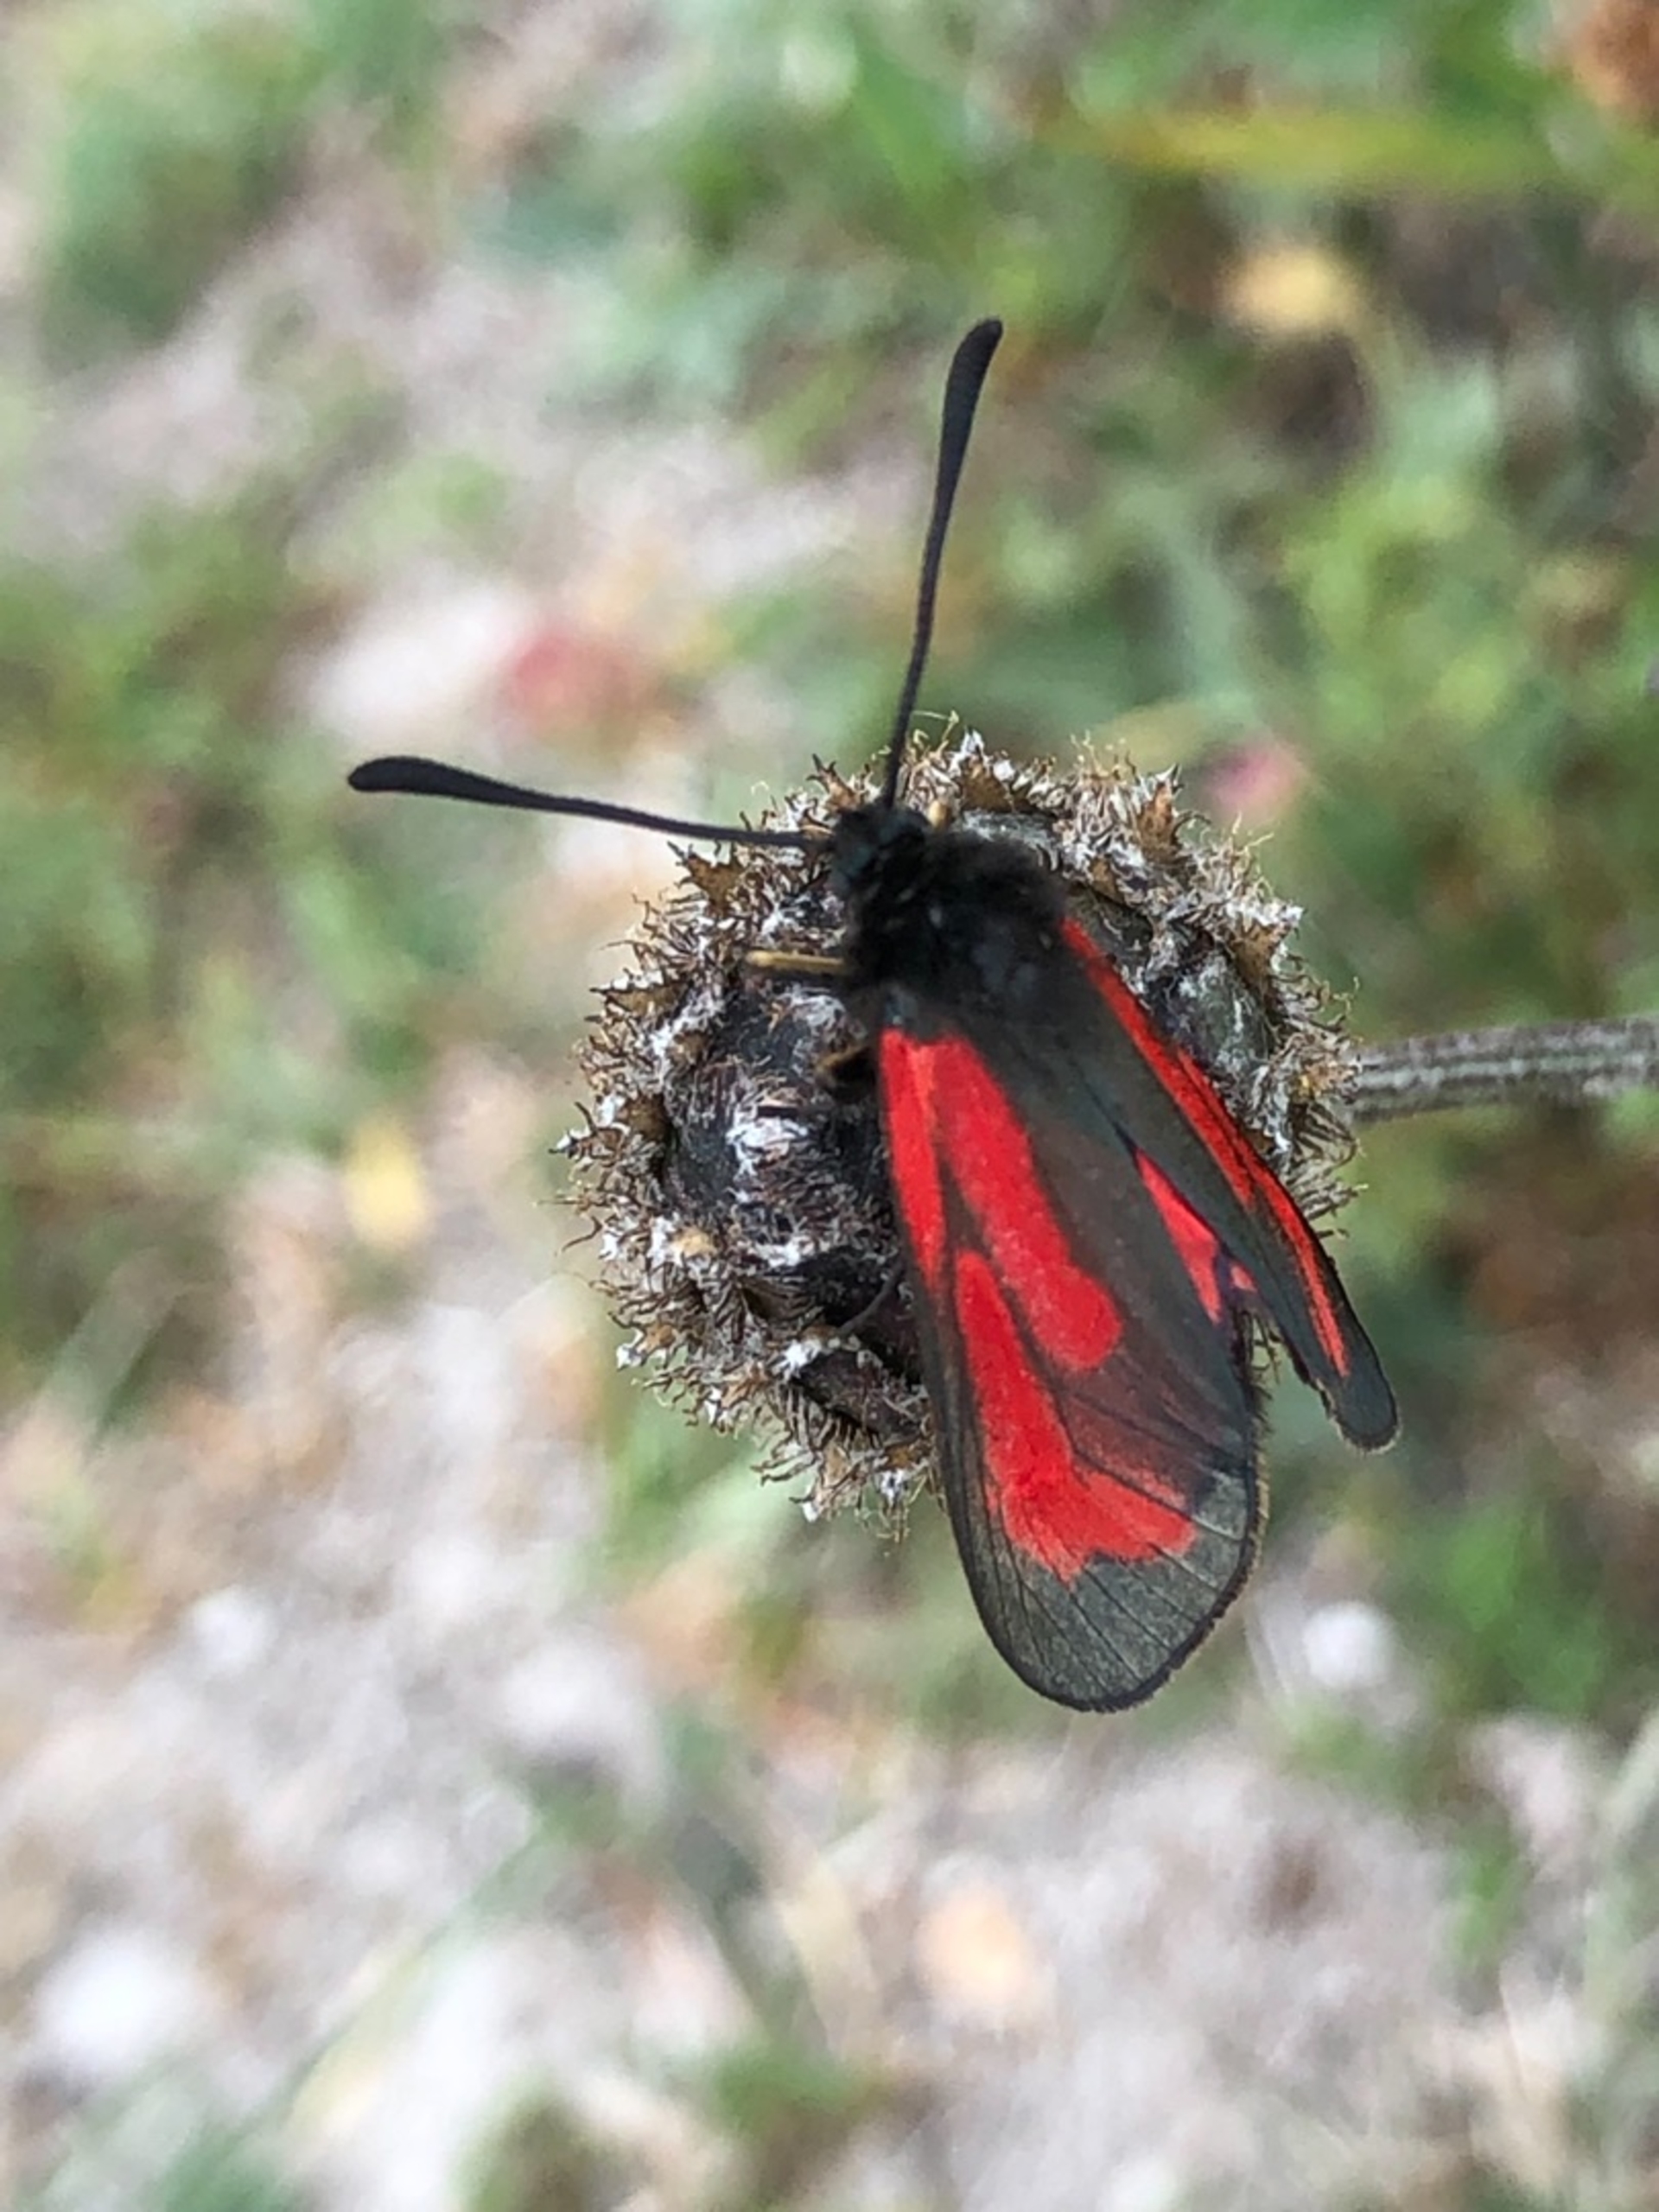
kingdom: Animalia
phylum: Arthropoda
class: Insecta
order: Lepidoptera
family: Zygaenidae
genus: Zygaena
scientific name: Zygaena purpuralis
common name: Timiankøllesværmer
